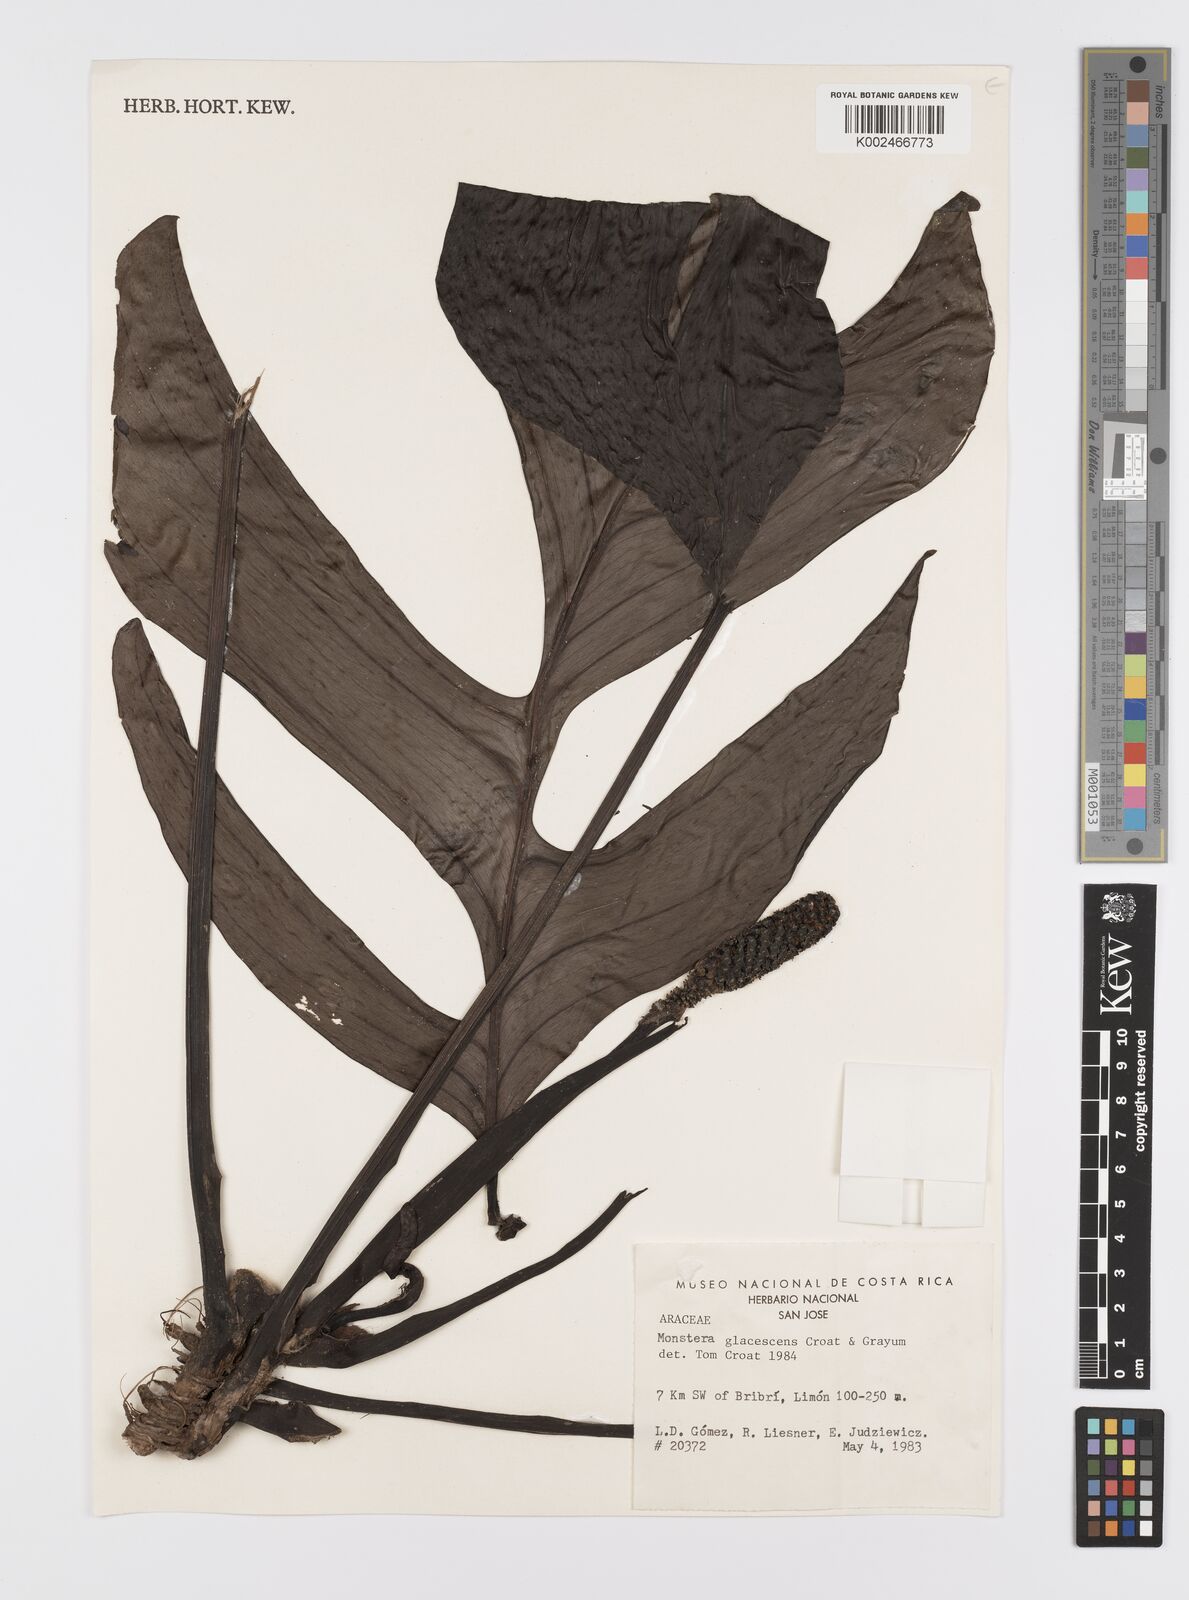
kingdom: Plantae
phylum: Tracheophyta
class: Liliopsida
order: Alismatales
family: Araceae
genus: Monstera
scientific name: Monstera glaucescens
